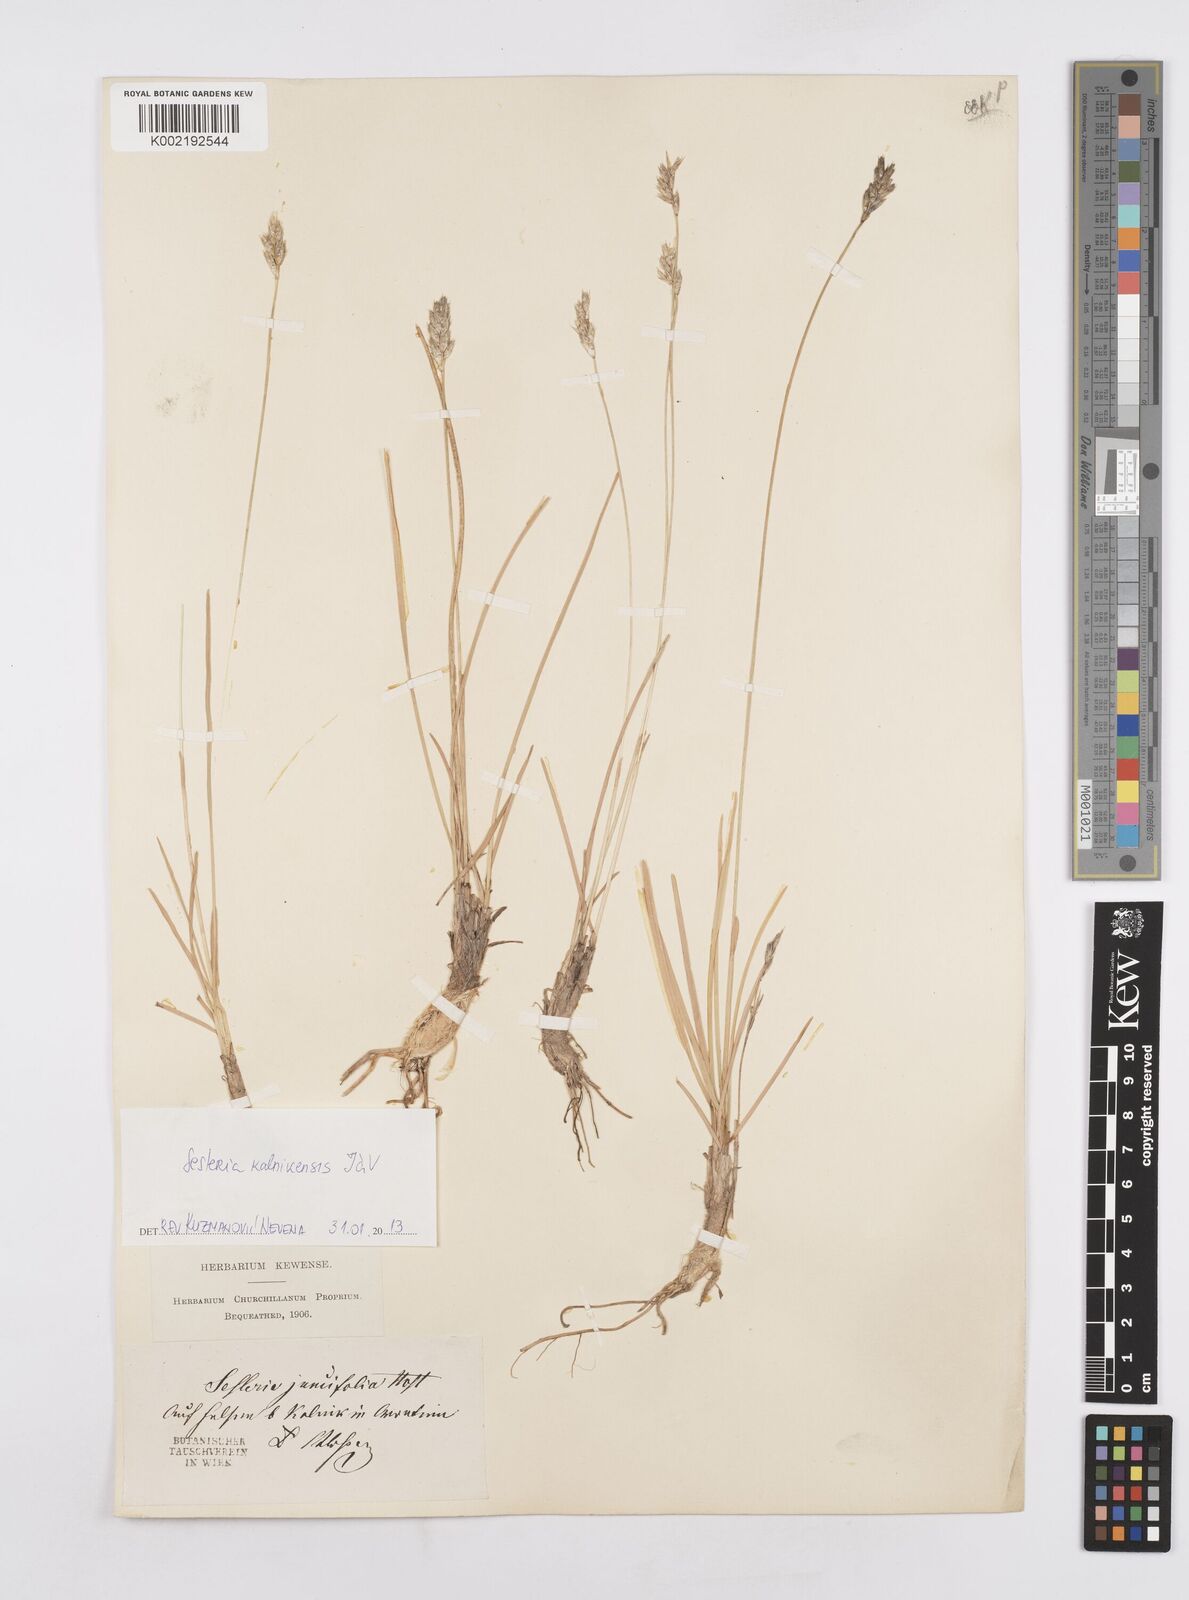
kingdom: Plantae
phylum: Tracheophyta
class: Liliopsida
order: Poales
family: Poaceae
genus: Sesleria
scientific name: Sesleria juncifolia
